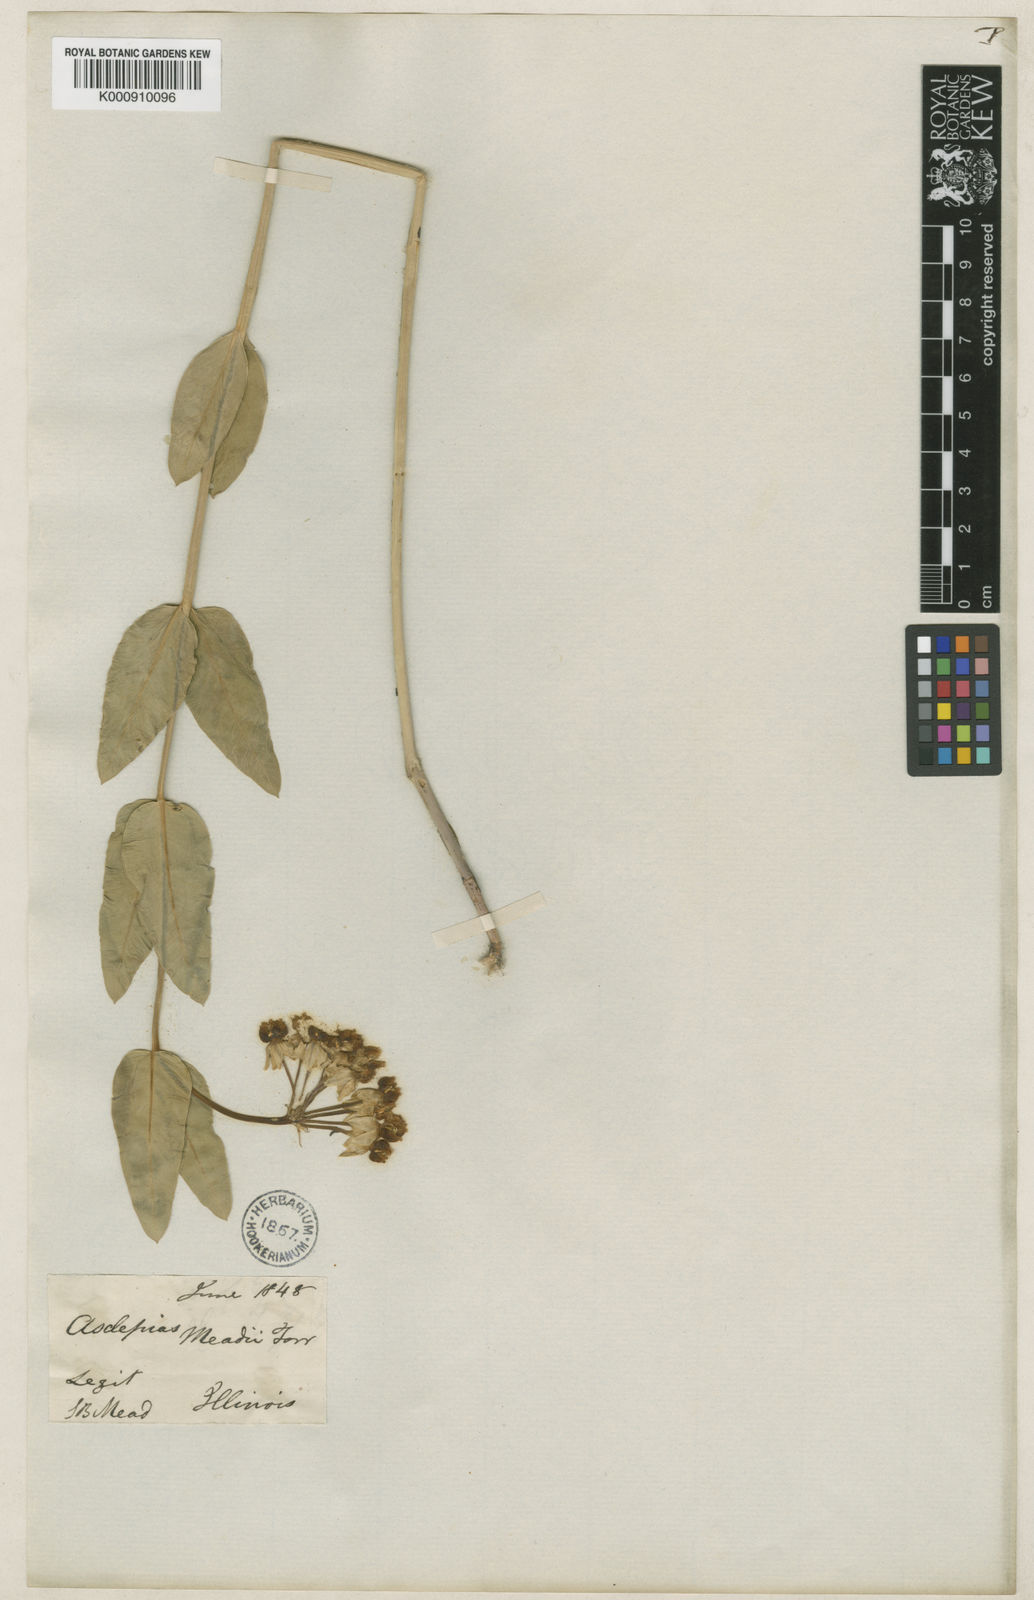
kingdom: Plantae
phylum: Tracheophyta
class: Magnoliopsida
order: Gentianales
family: Apocynaceae
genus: Asclepias
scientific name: Asclepias
